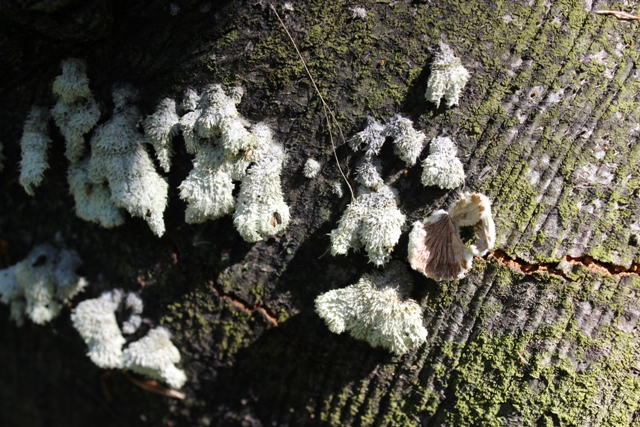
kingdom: Fungi
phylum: Basidiomycota
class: Agaricomycetes
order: Agaricales
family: Schizophyllaceae
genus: Schizophyllum
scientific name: Schizophyllum commune
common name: kløvblad
